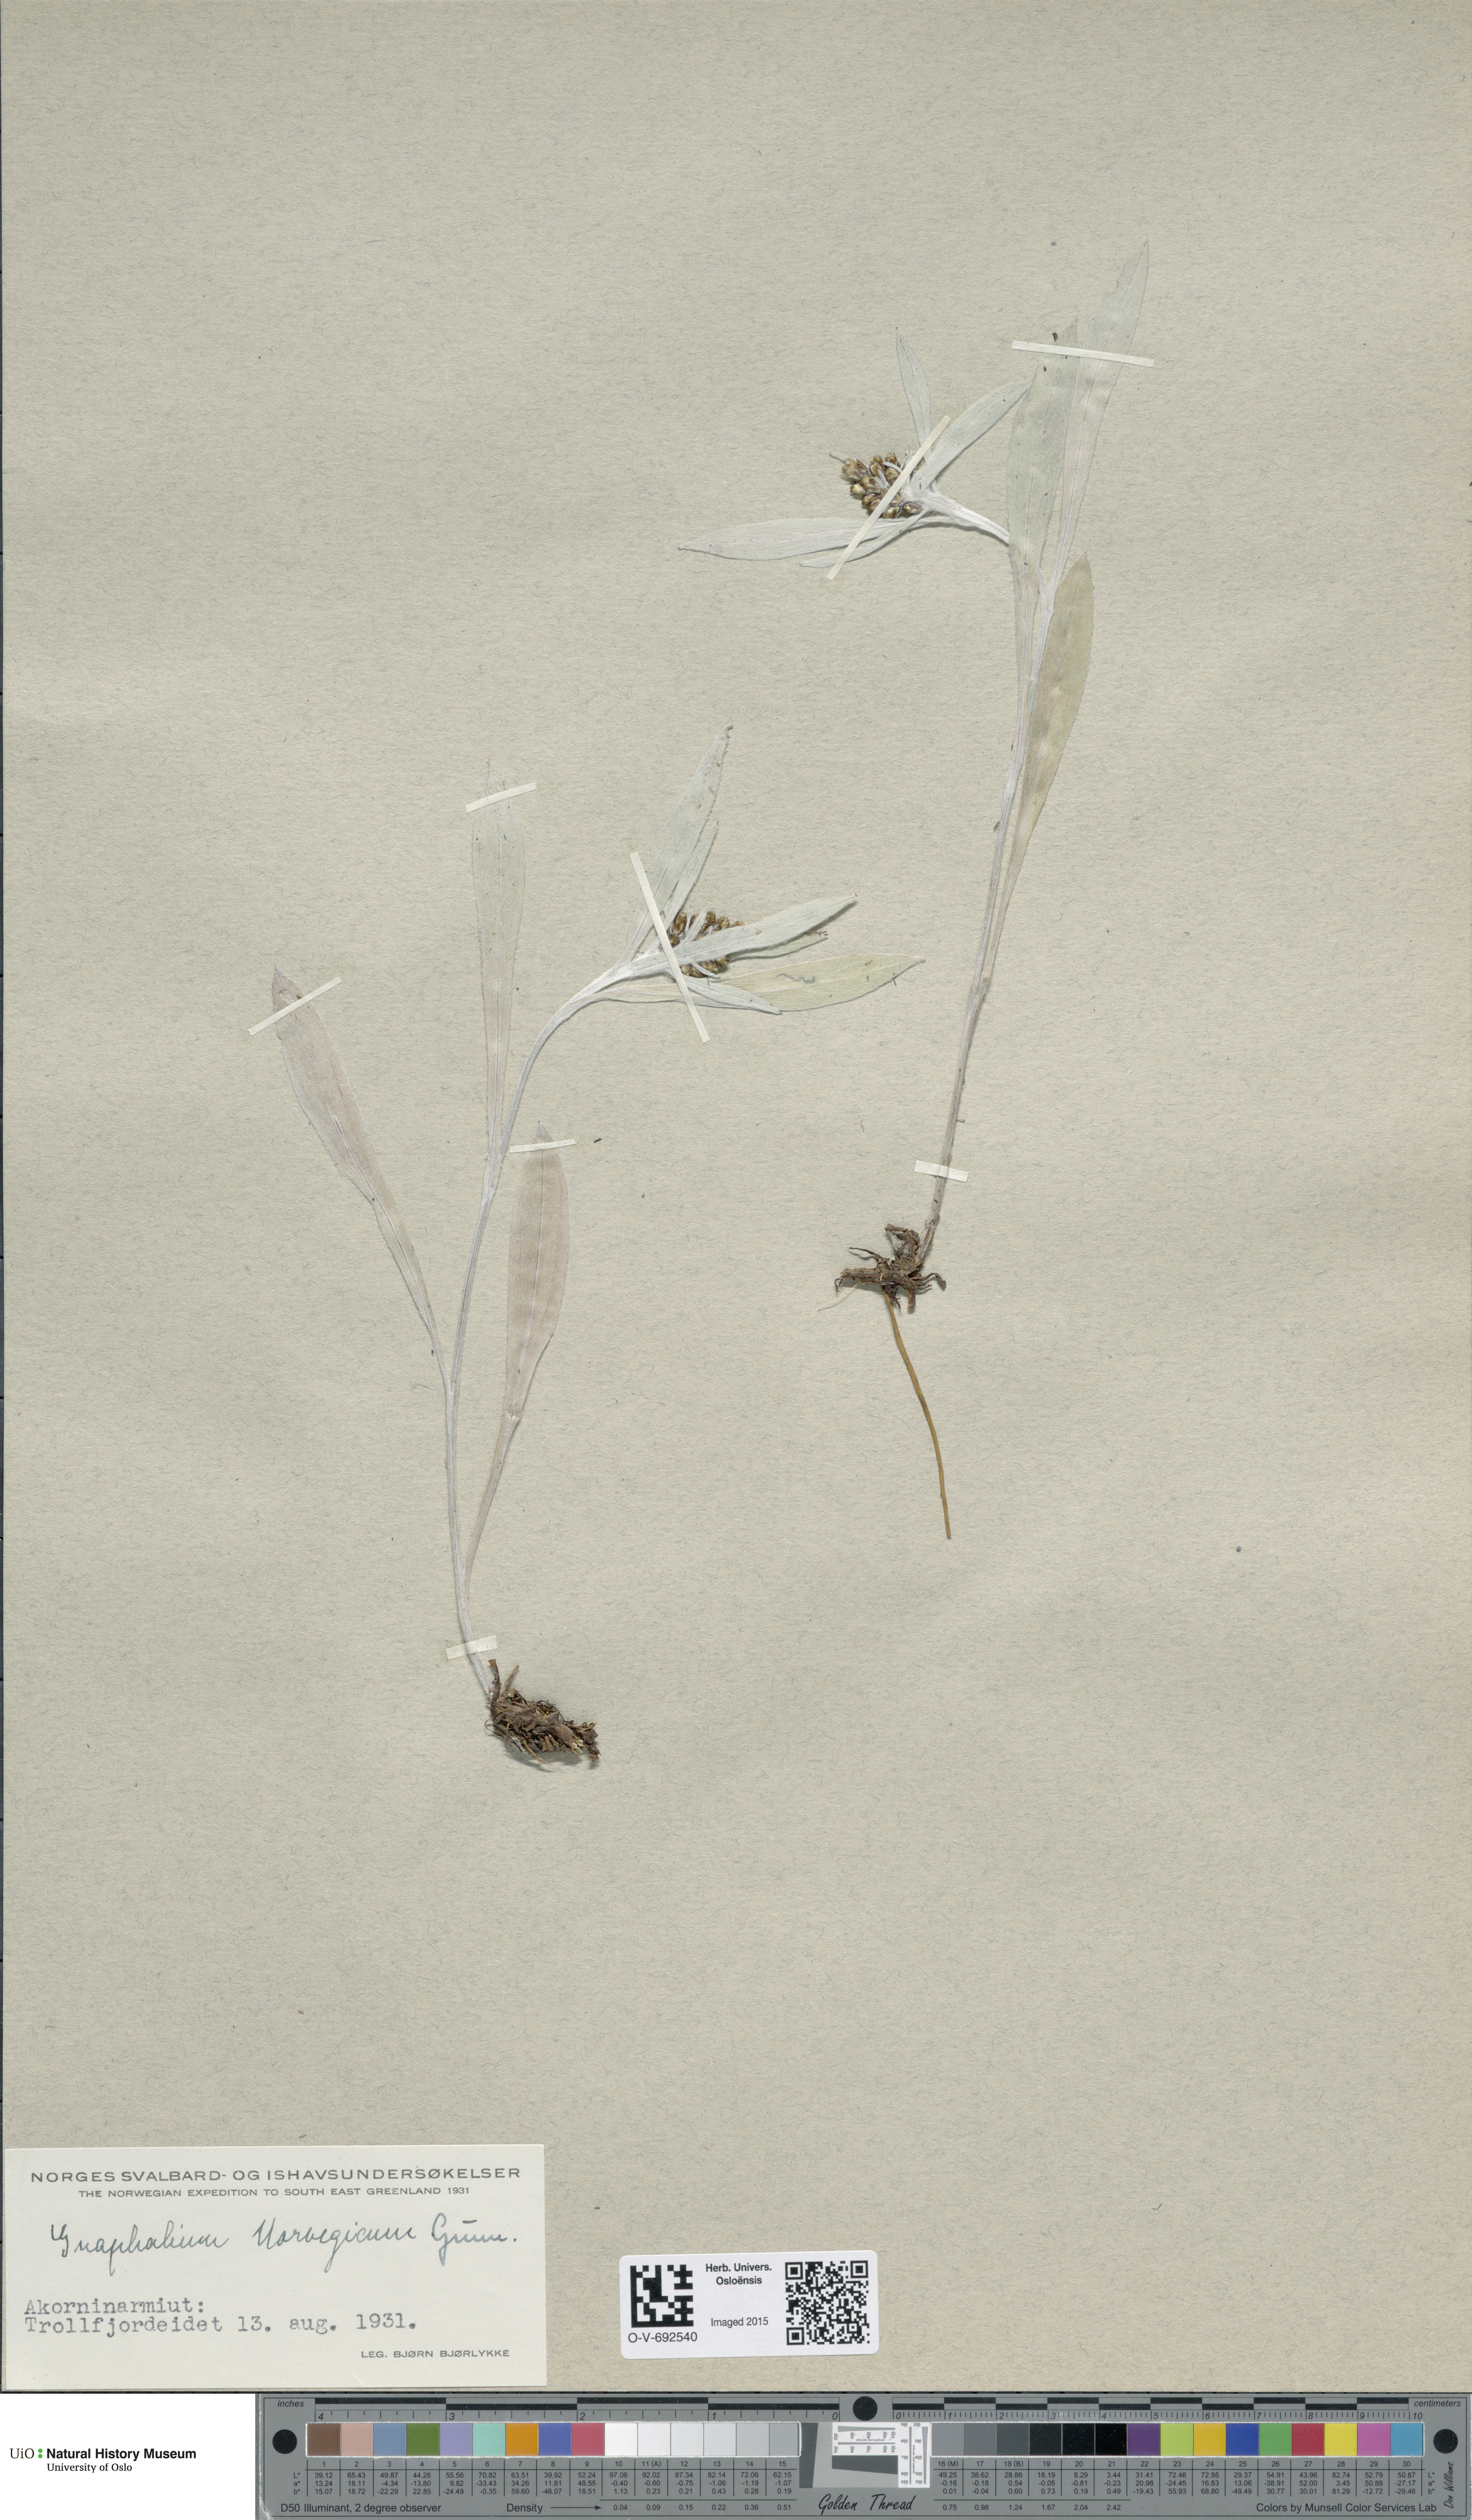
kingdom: Plantae
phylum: Tracheophyta
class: Magnoliopsida
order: Asterales
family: Asteraceae
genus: Omalotheca
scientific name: Omalotheca norvegica
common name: Norwegian arctic-cudweed
